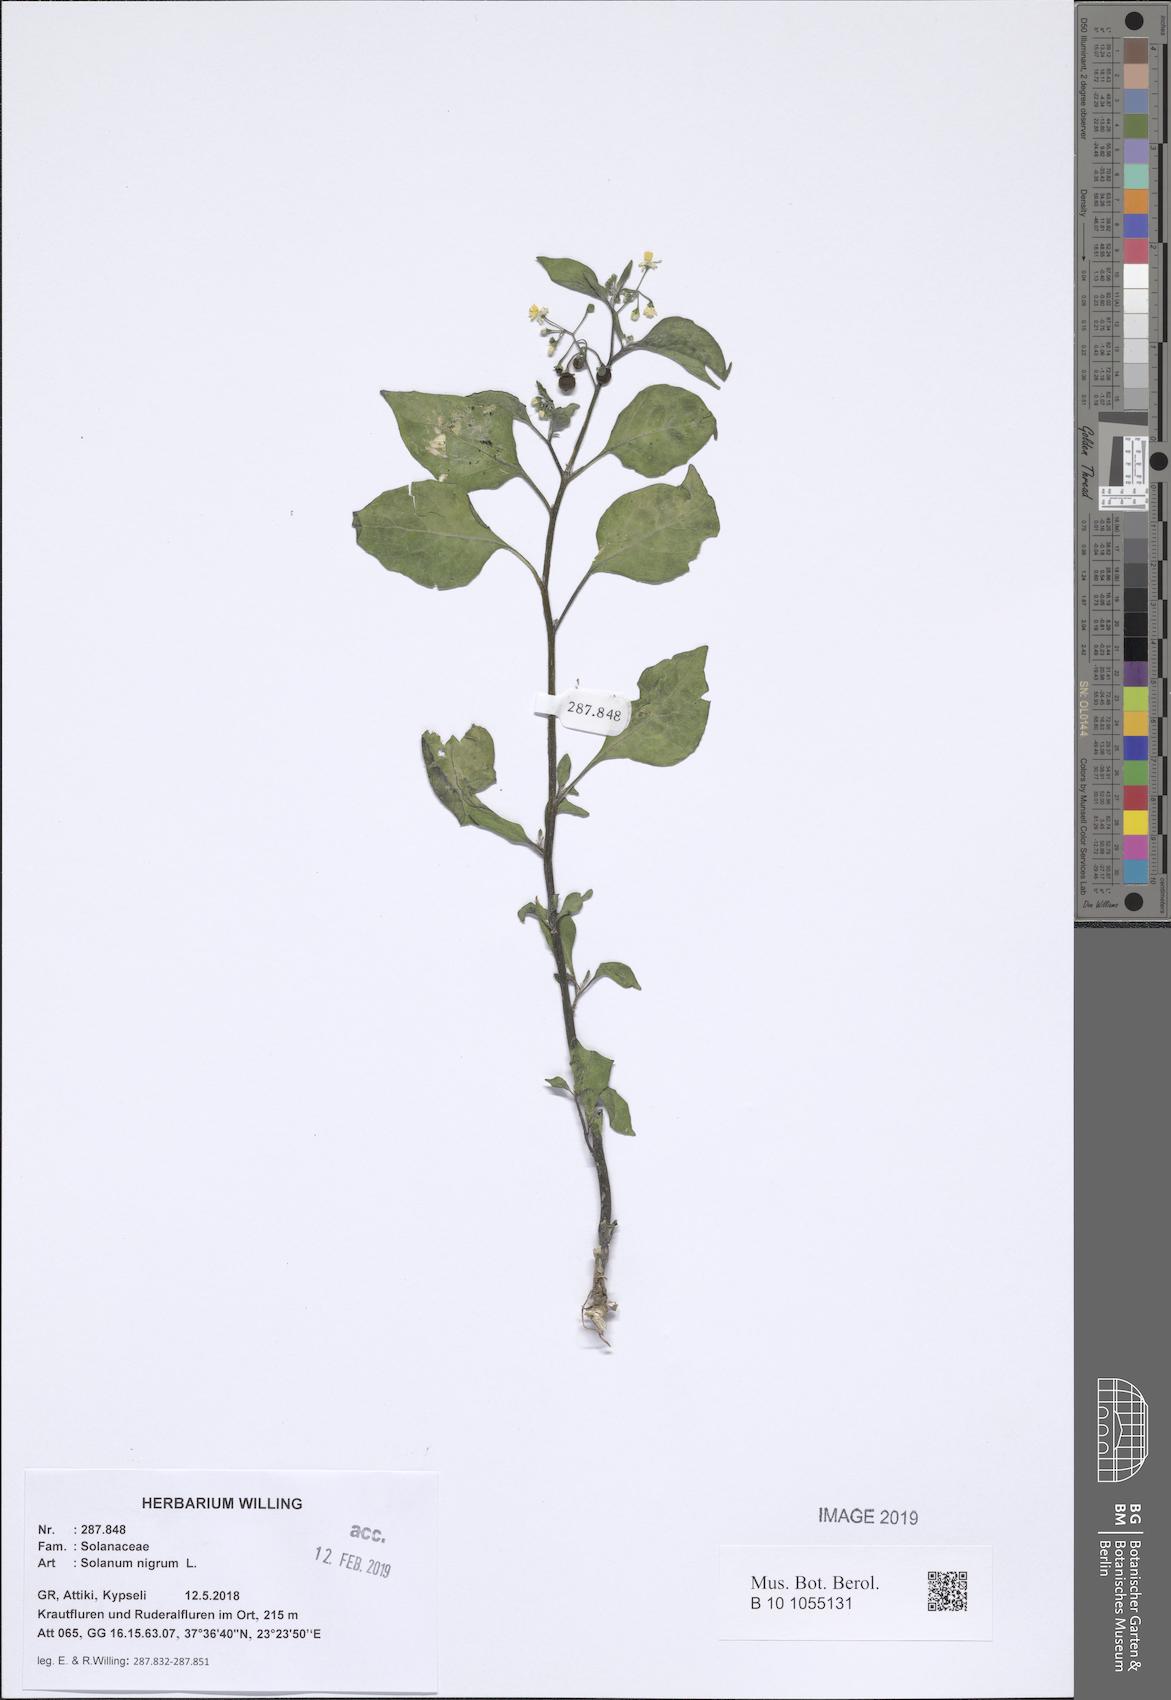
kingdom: Plantae
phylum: Tracheophyta
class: Magnoliopsida
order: Solanales
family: Solanaceae
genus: Solanum
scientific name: Solanum nigrum
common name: Black nightshade
